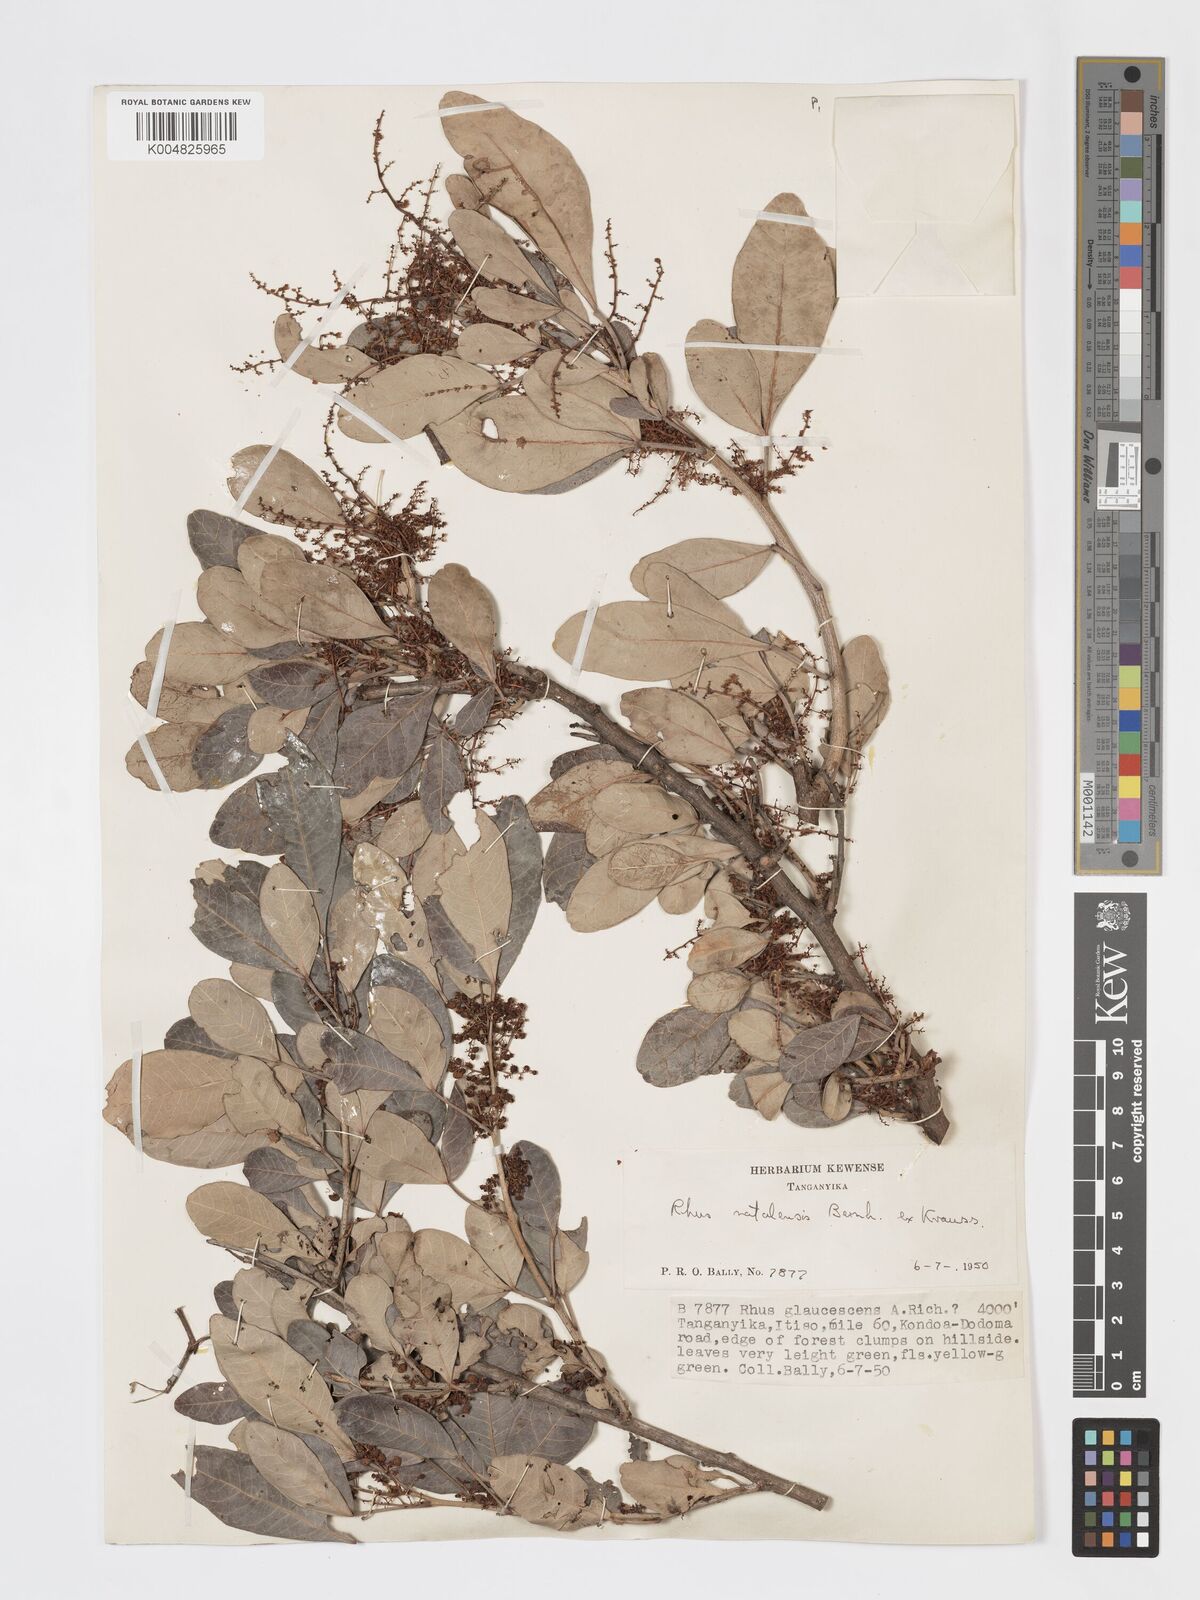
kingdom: Plantae
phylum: Tracheophyta
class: Magnoliopsida
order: Sapindales
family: Anacardiaceae
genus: Searsia
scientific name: Searsia natalensis
